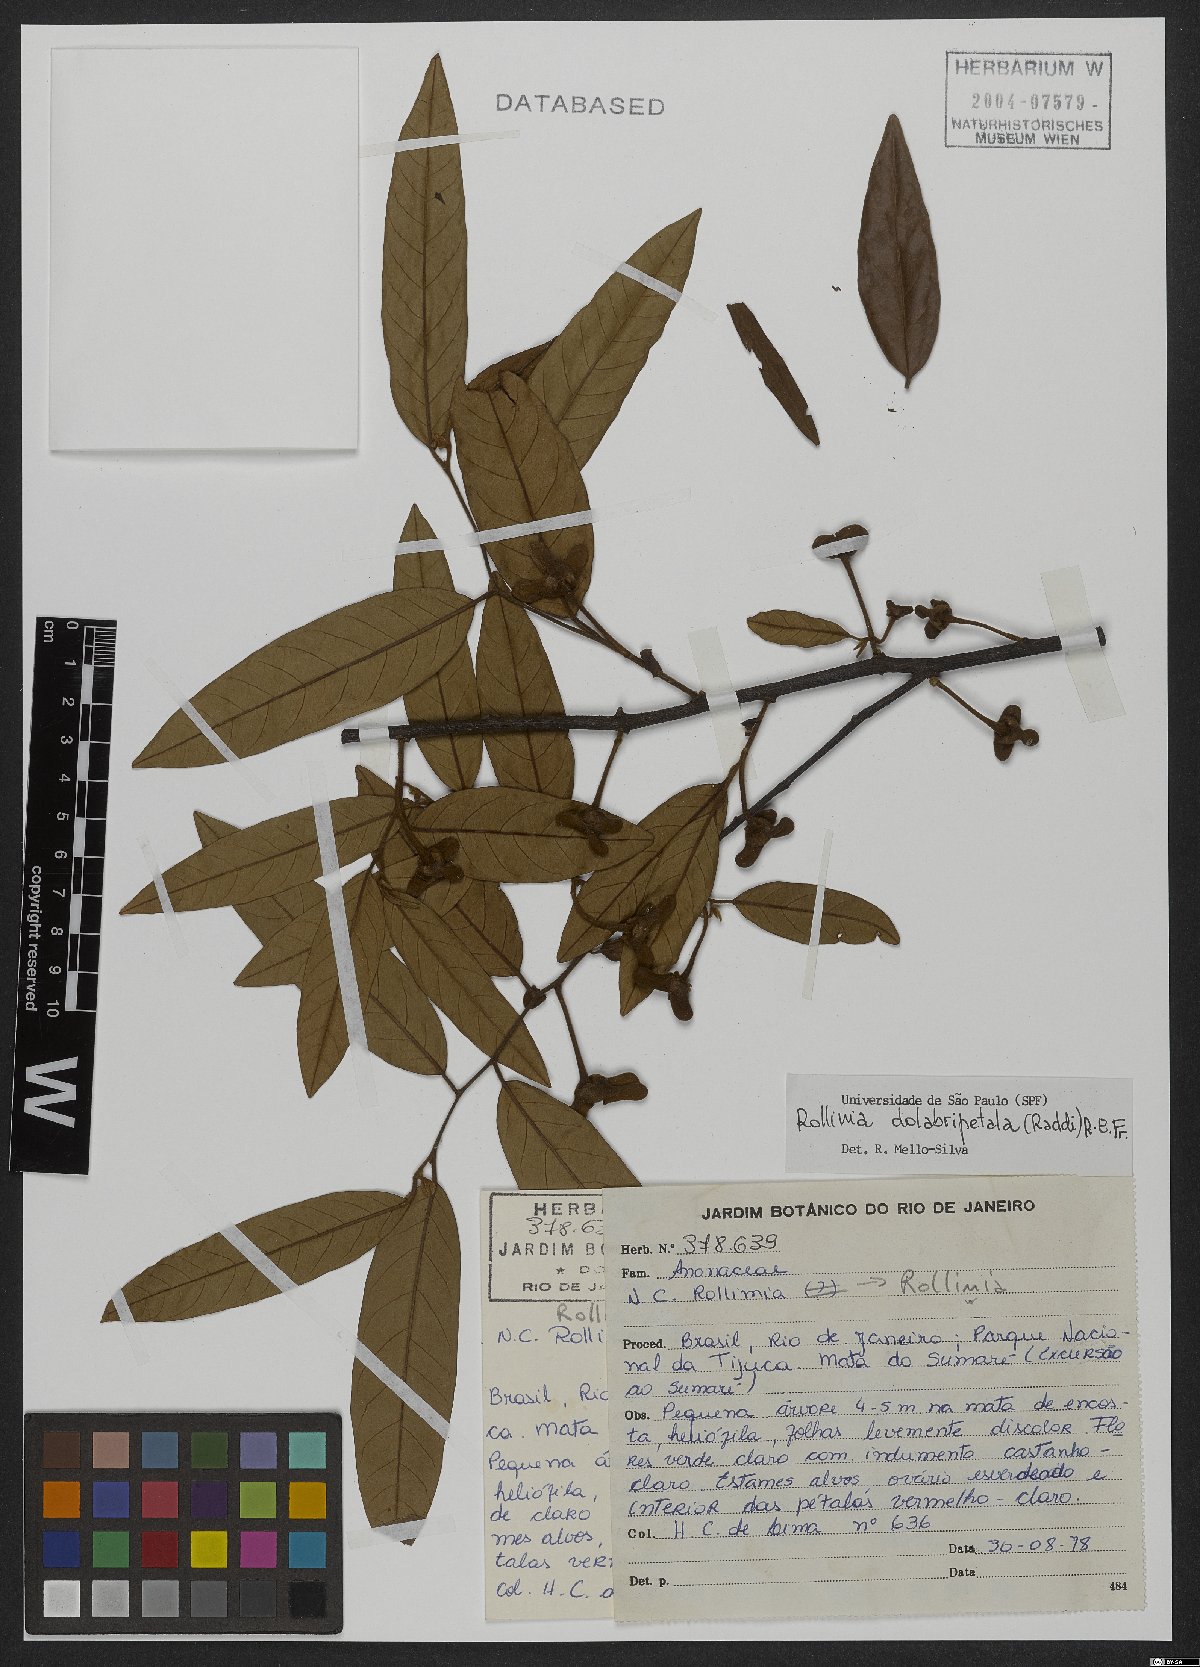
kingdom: Plantae
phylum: Tracheophyta
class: Magnoliopsida
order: Magnoliales
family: Annonaceae
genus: Annona
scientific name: Annona dolabripetala
